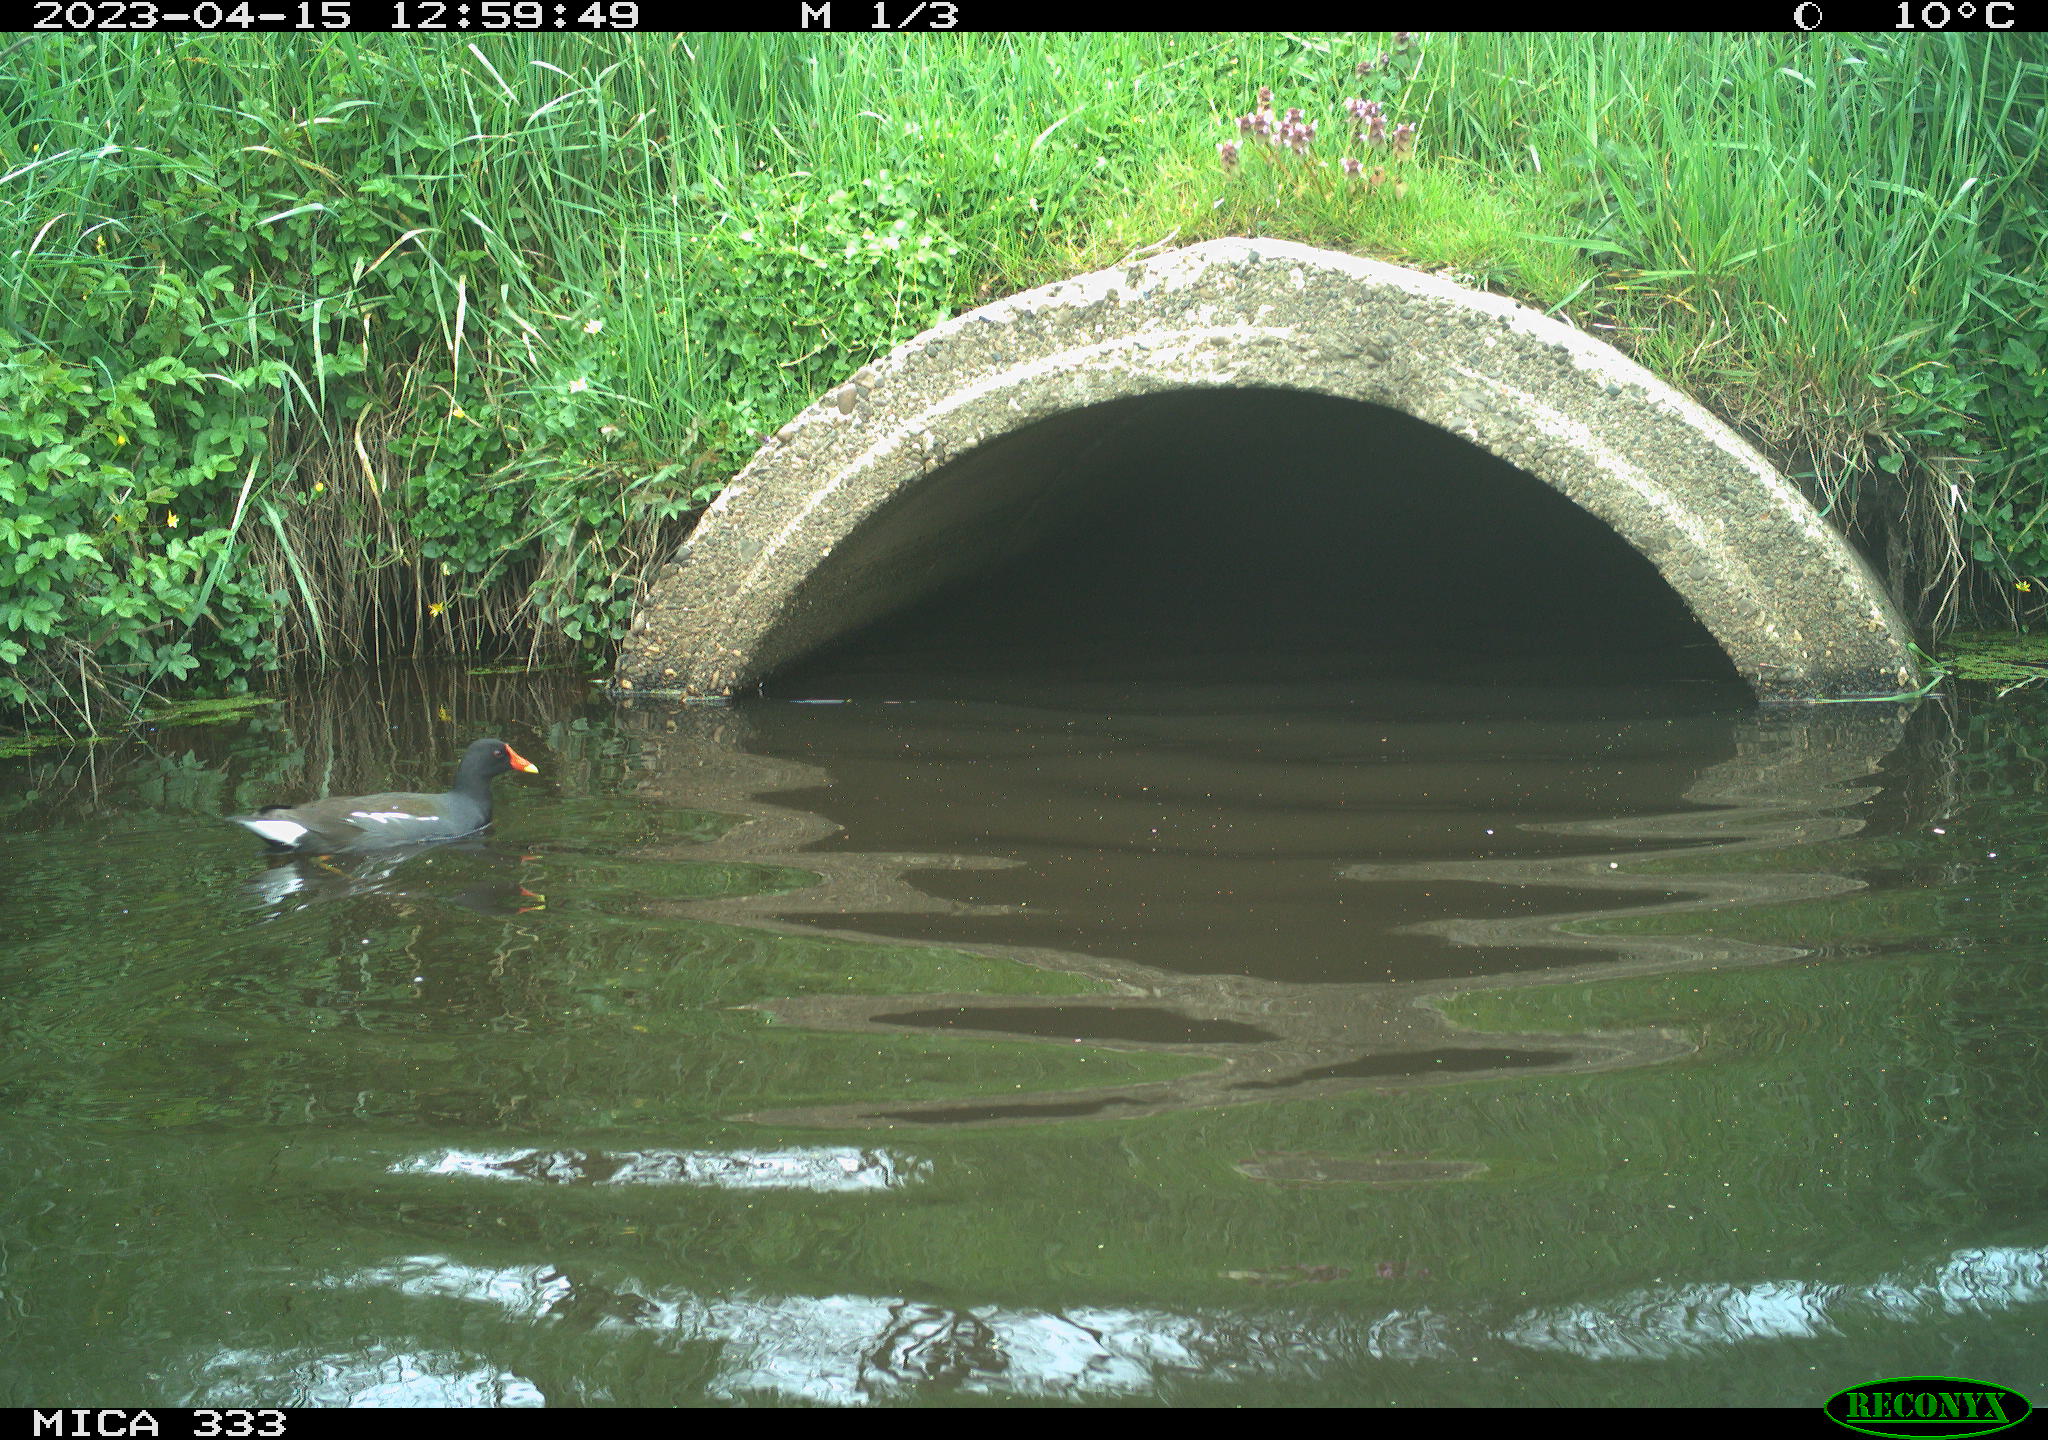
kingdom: Animalia
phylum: Chordata
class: Aves
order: Gruiformes
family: Rallidae
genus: Gallinula
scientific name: Gallinula chloropus
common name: Common moorhen
